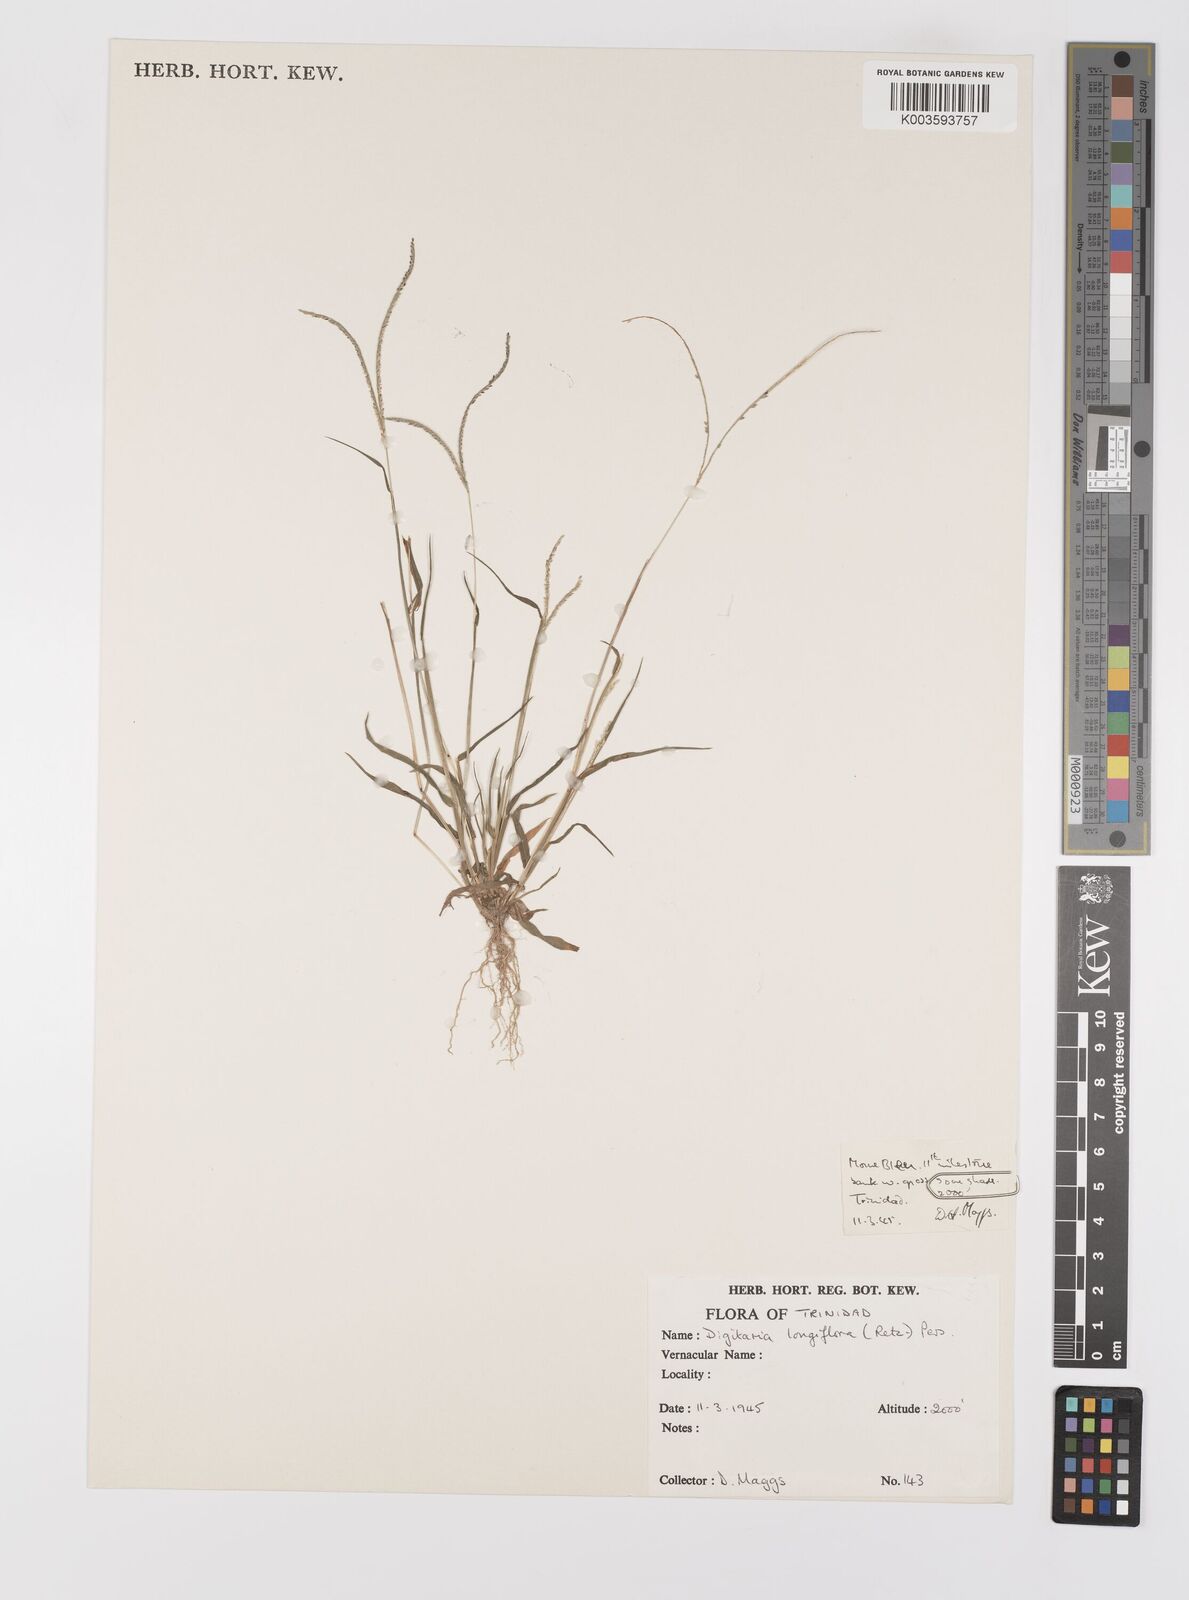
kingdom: Plantae
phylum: Tracheophyta
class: Liliopsida
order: Poales
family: Poaceae
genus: Digitaria
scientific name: Digitaria longiflora
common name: Wire crabgrass
